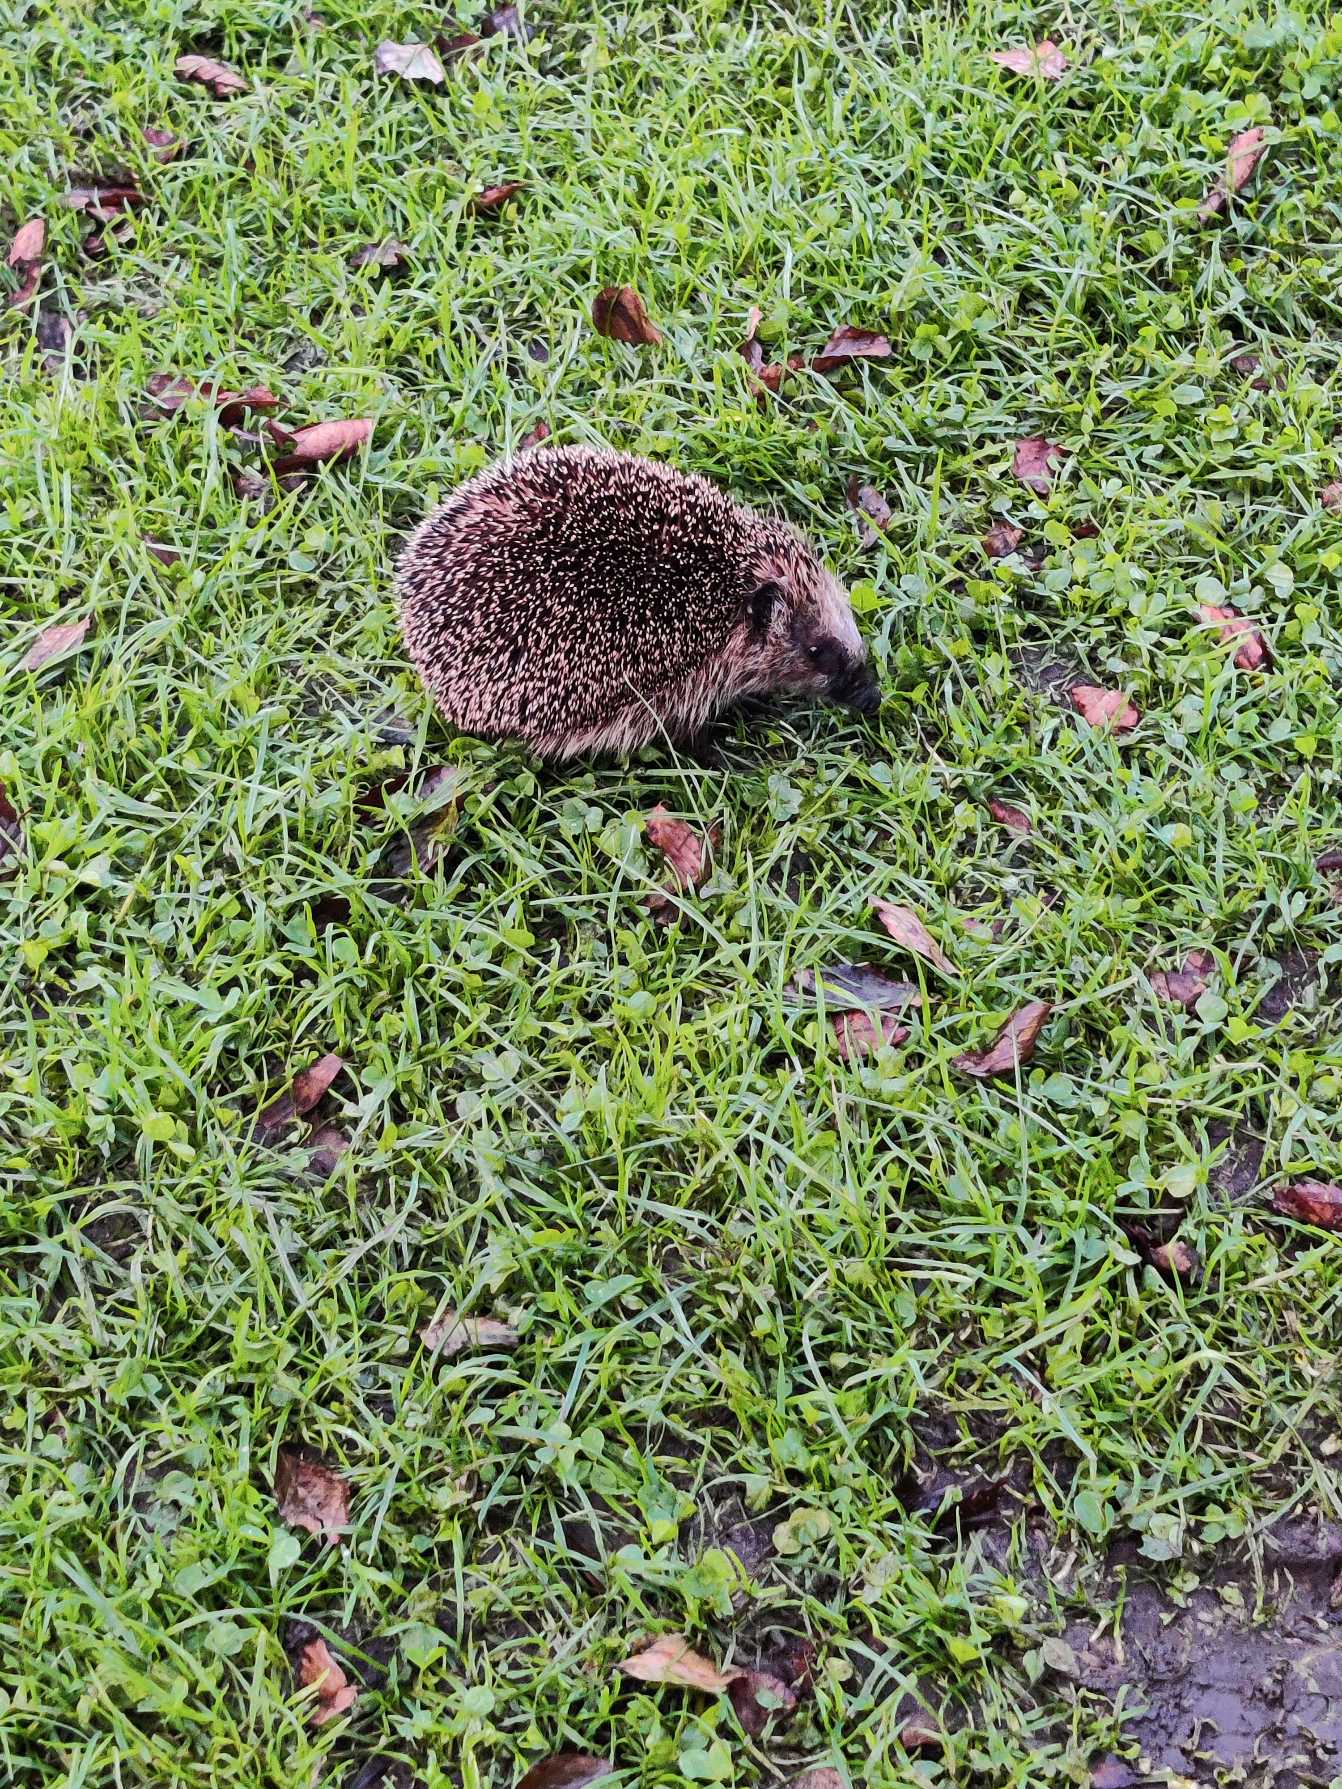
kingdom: Animalia
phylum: Chordata
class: Mammalia
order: Erinaceomorpha
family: Erinaceidae
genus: Erinaceus
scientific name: Erinaceus europaeus
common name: Pindsvin
